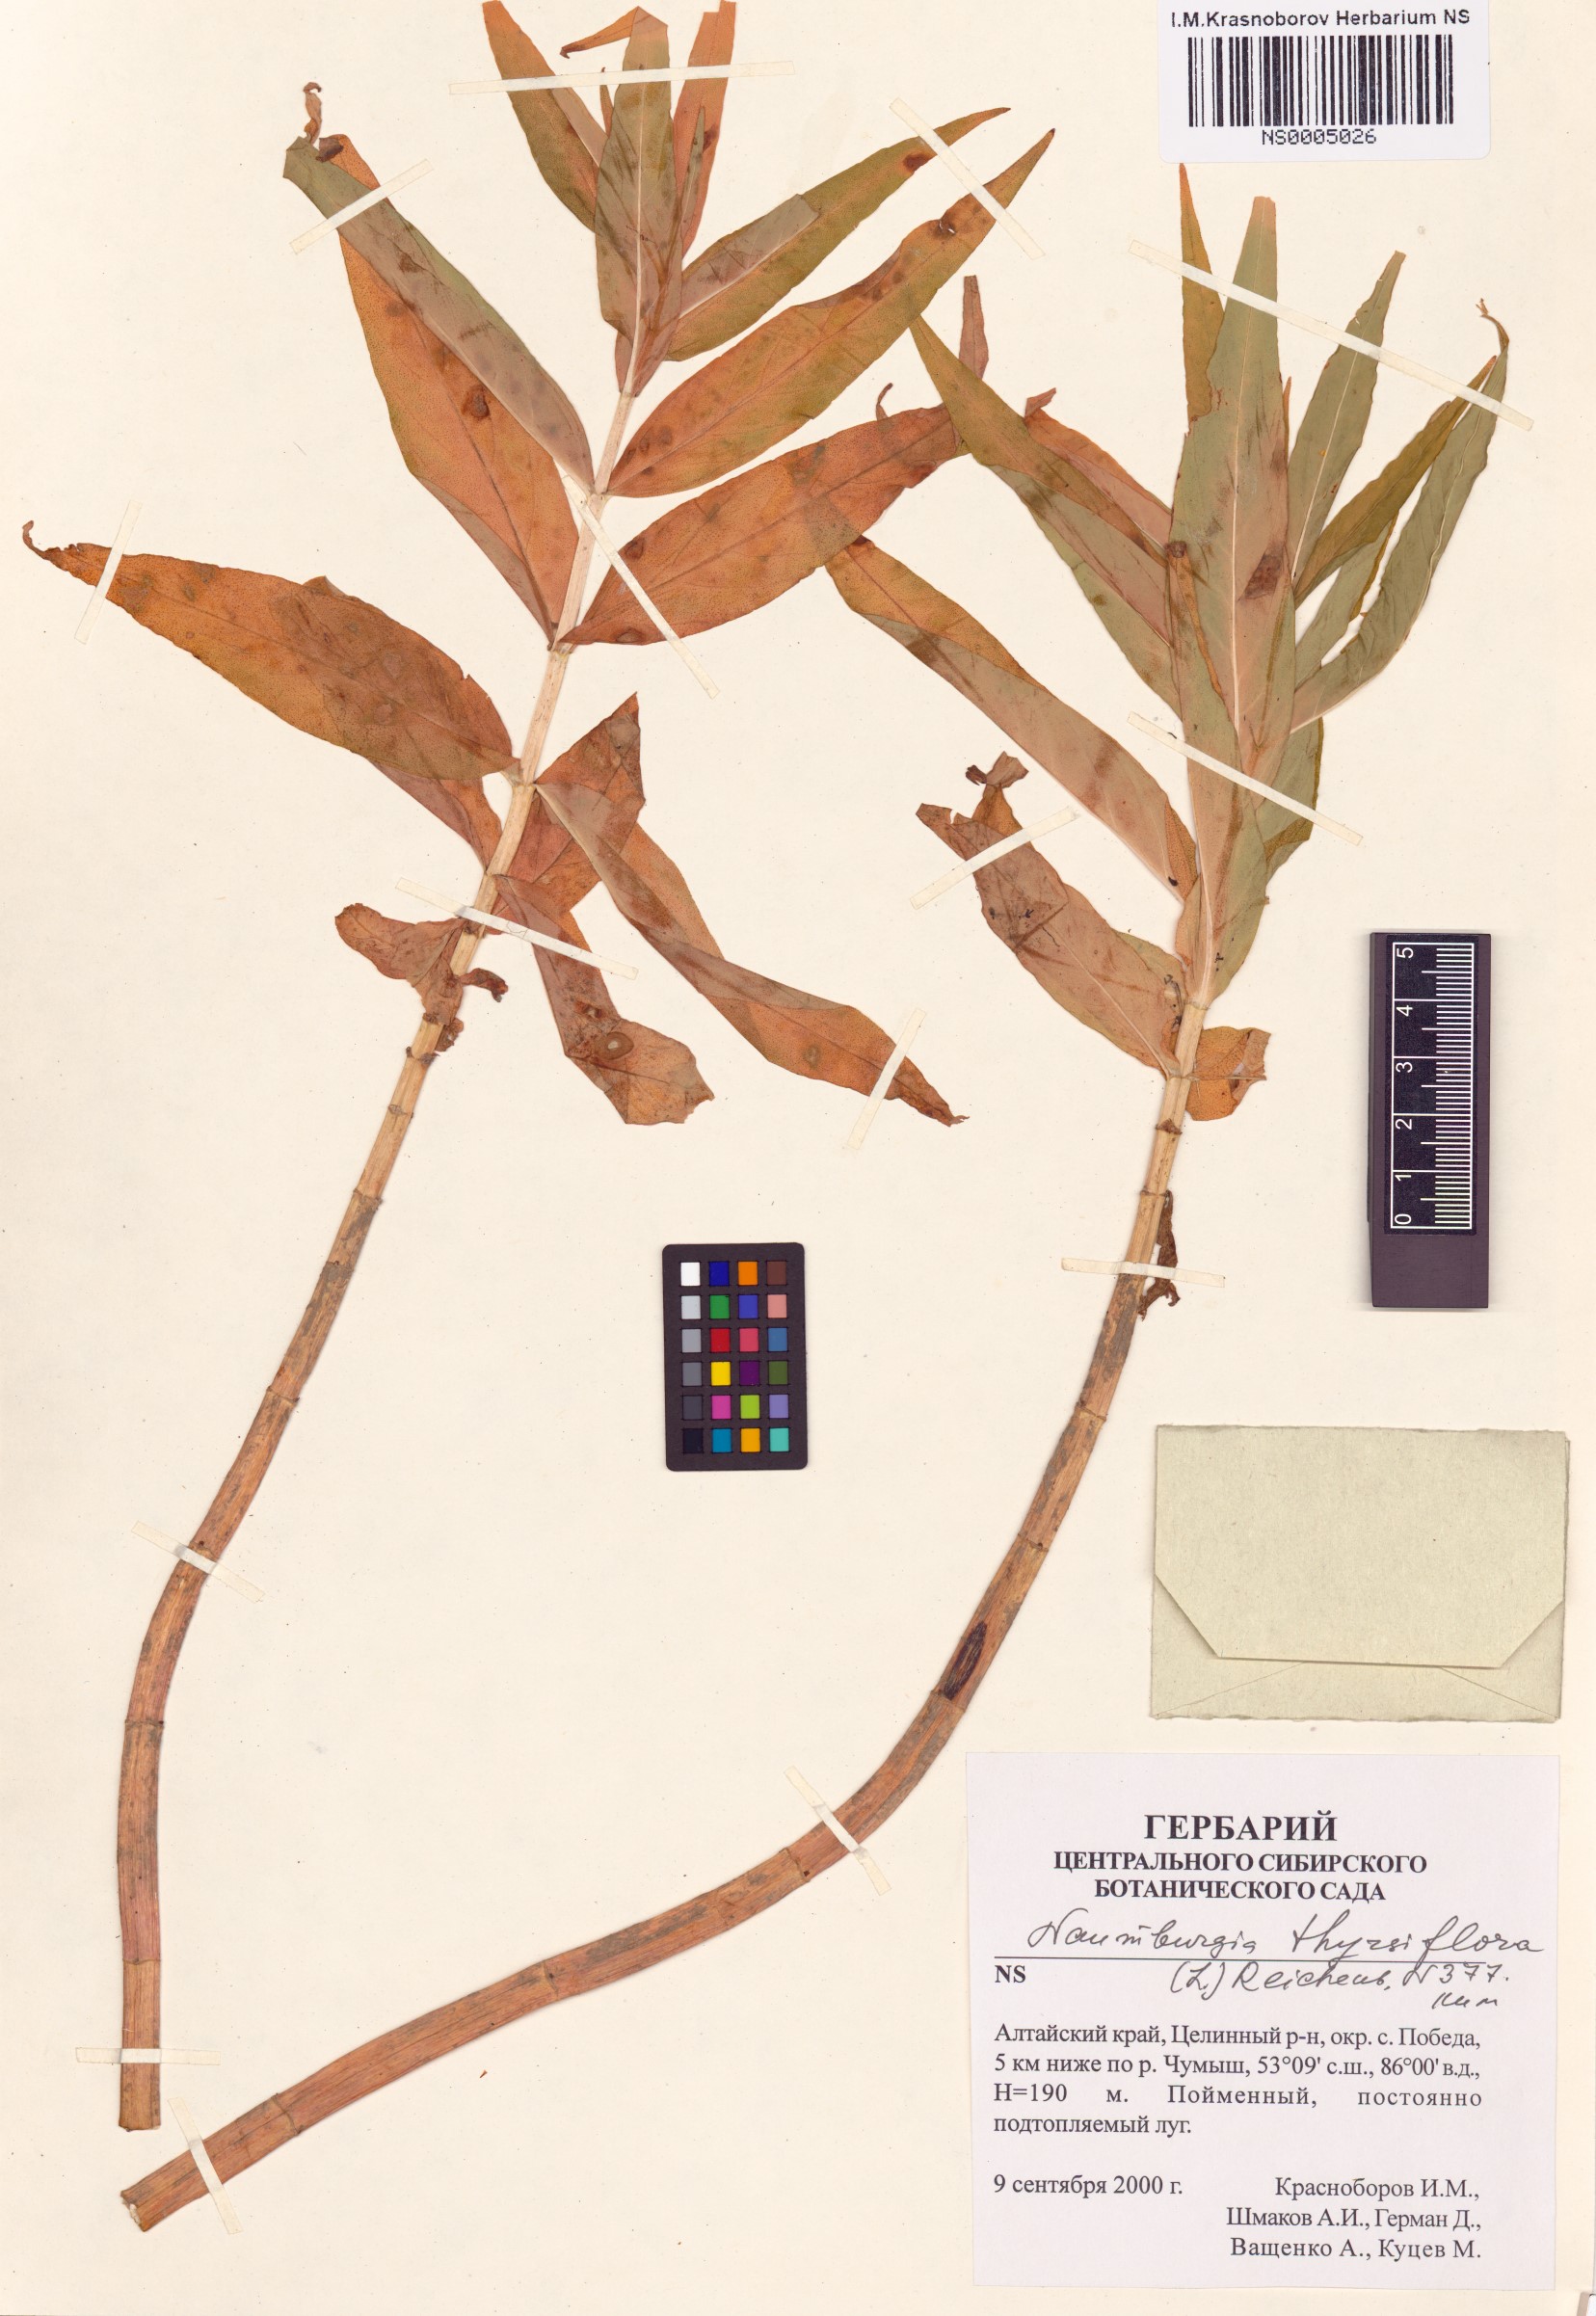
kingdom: Plantae
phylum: Tracheophyta
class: Magnoliopsida
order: Ericales
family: Primulaceae
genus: Lysimachia
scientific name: Lysimachia thyrsiflora
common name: Tufted loosestrife
